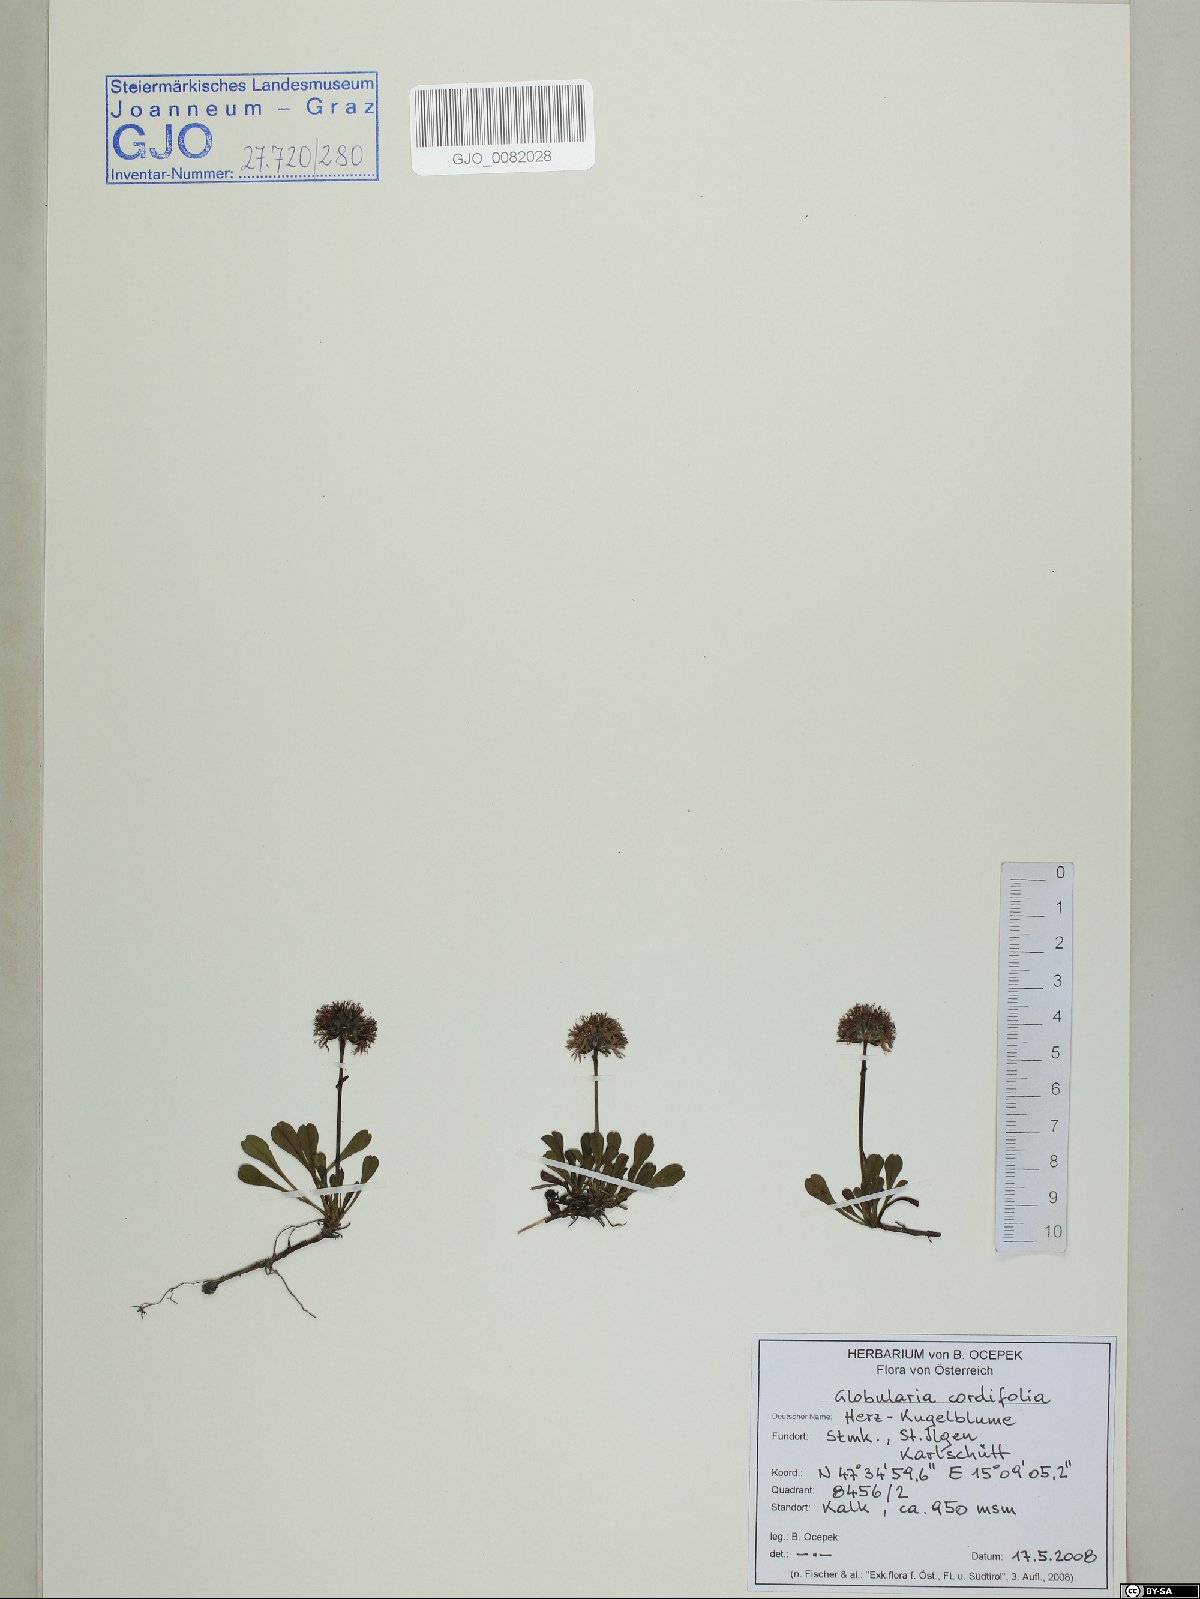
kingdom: Plantae
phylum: Tracheophyta
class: Magnoliopsida
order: Lamiales
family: Plantaginaceae
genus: Globularia
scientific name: Globularia cordifolia
